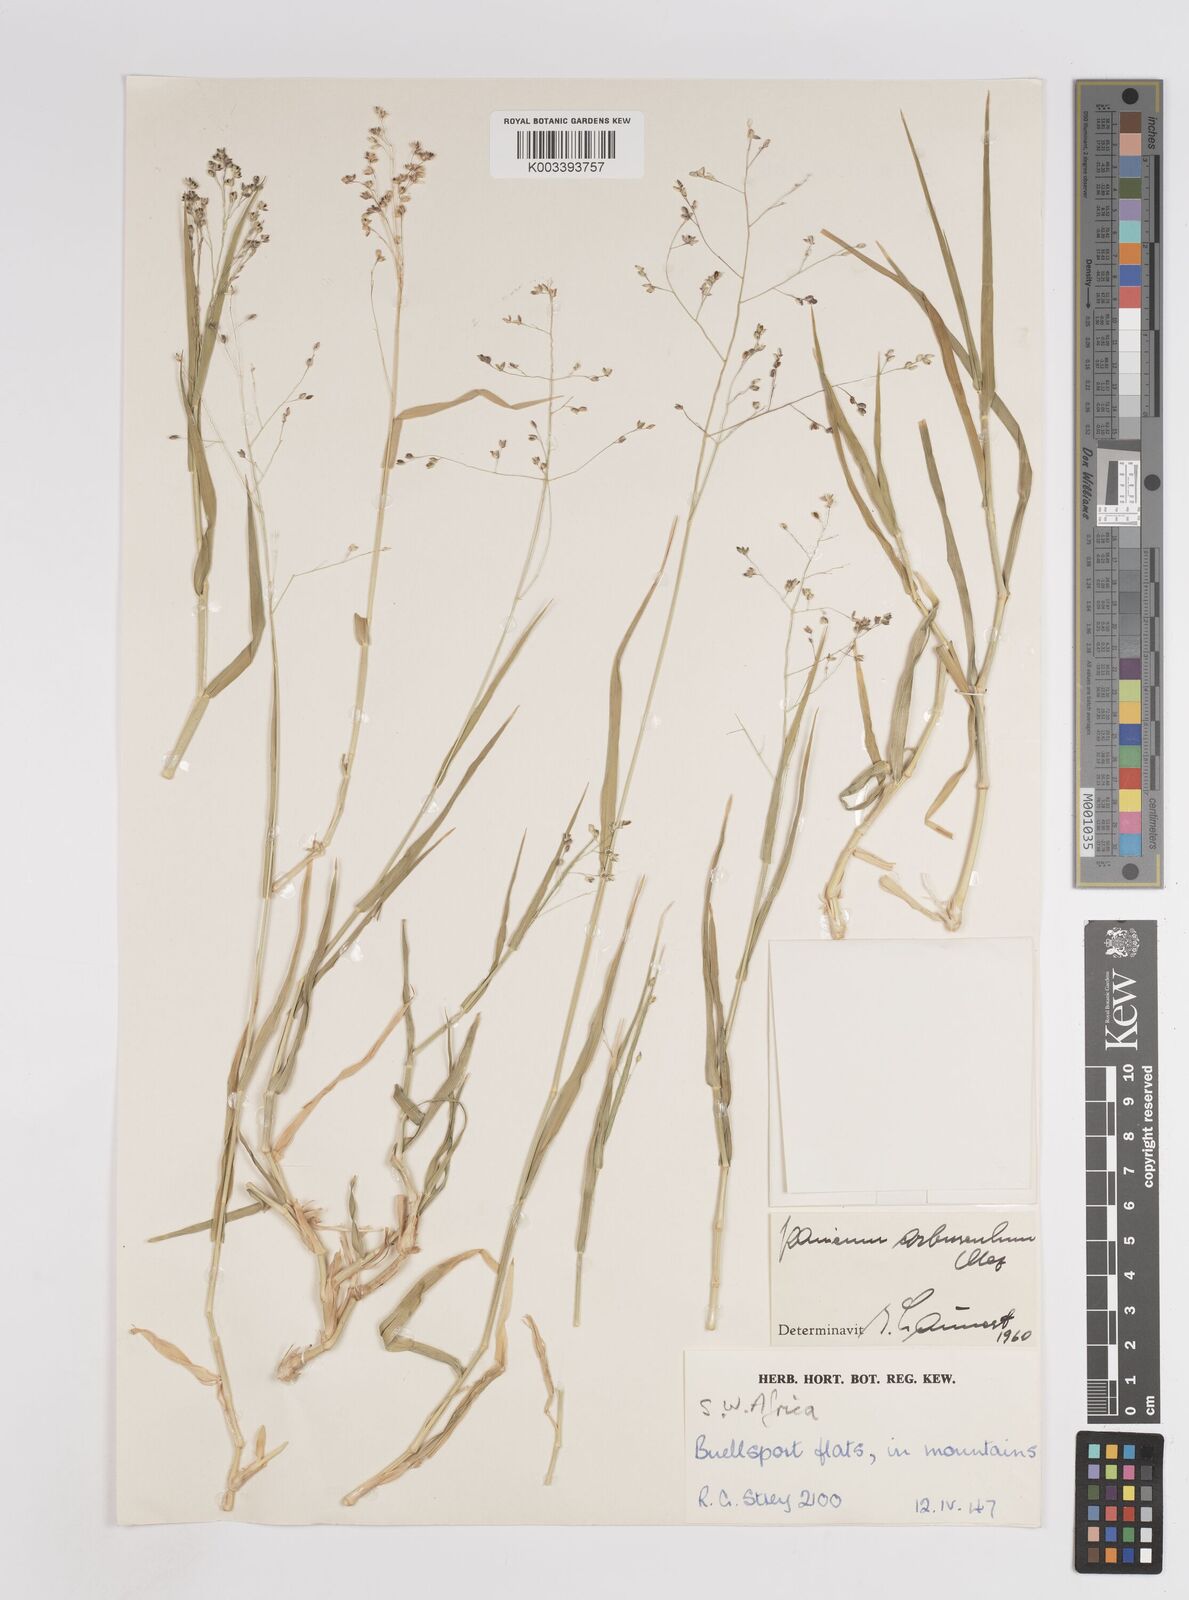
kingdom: Plantae
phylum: Tracheophyta
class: Liliopsida
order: Poales
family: Poaceae
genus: Panicum
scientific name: Panicum arbusculum
